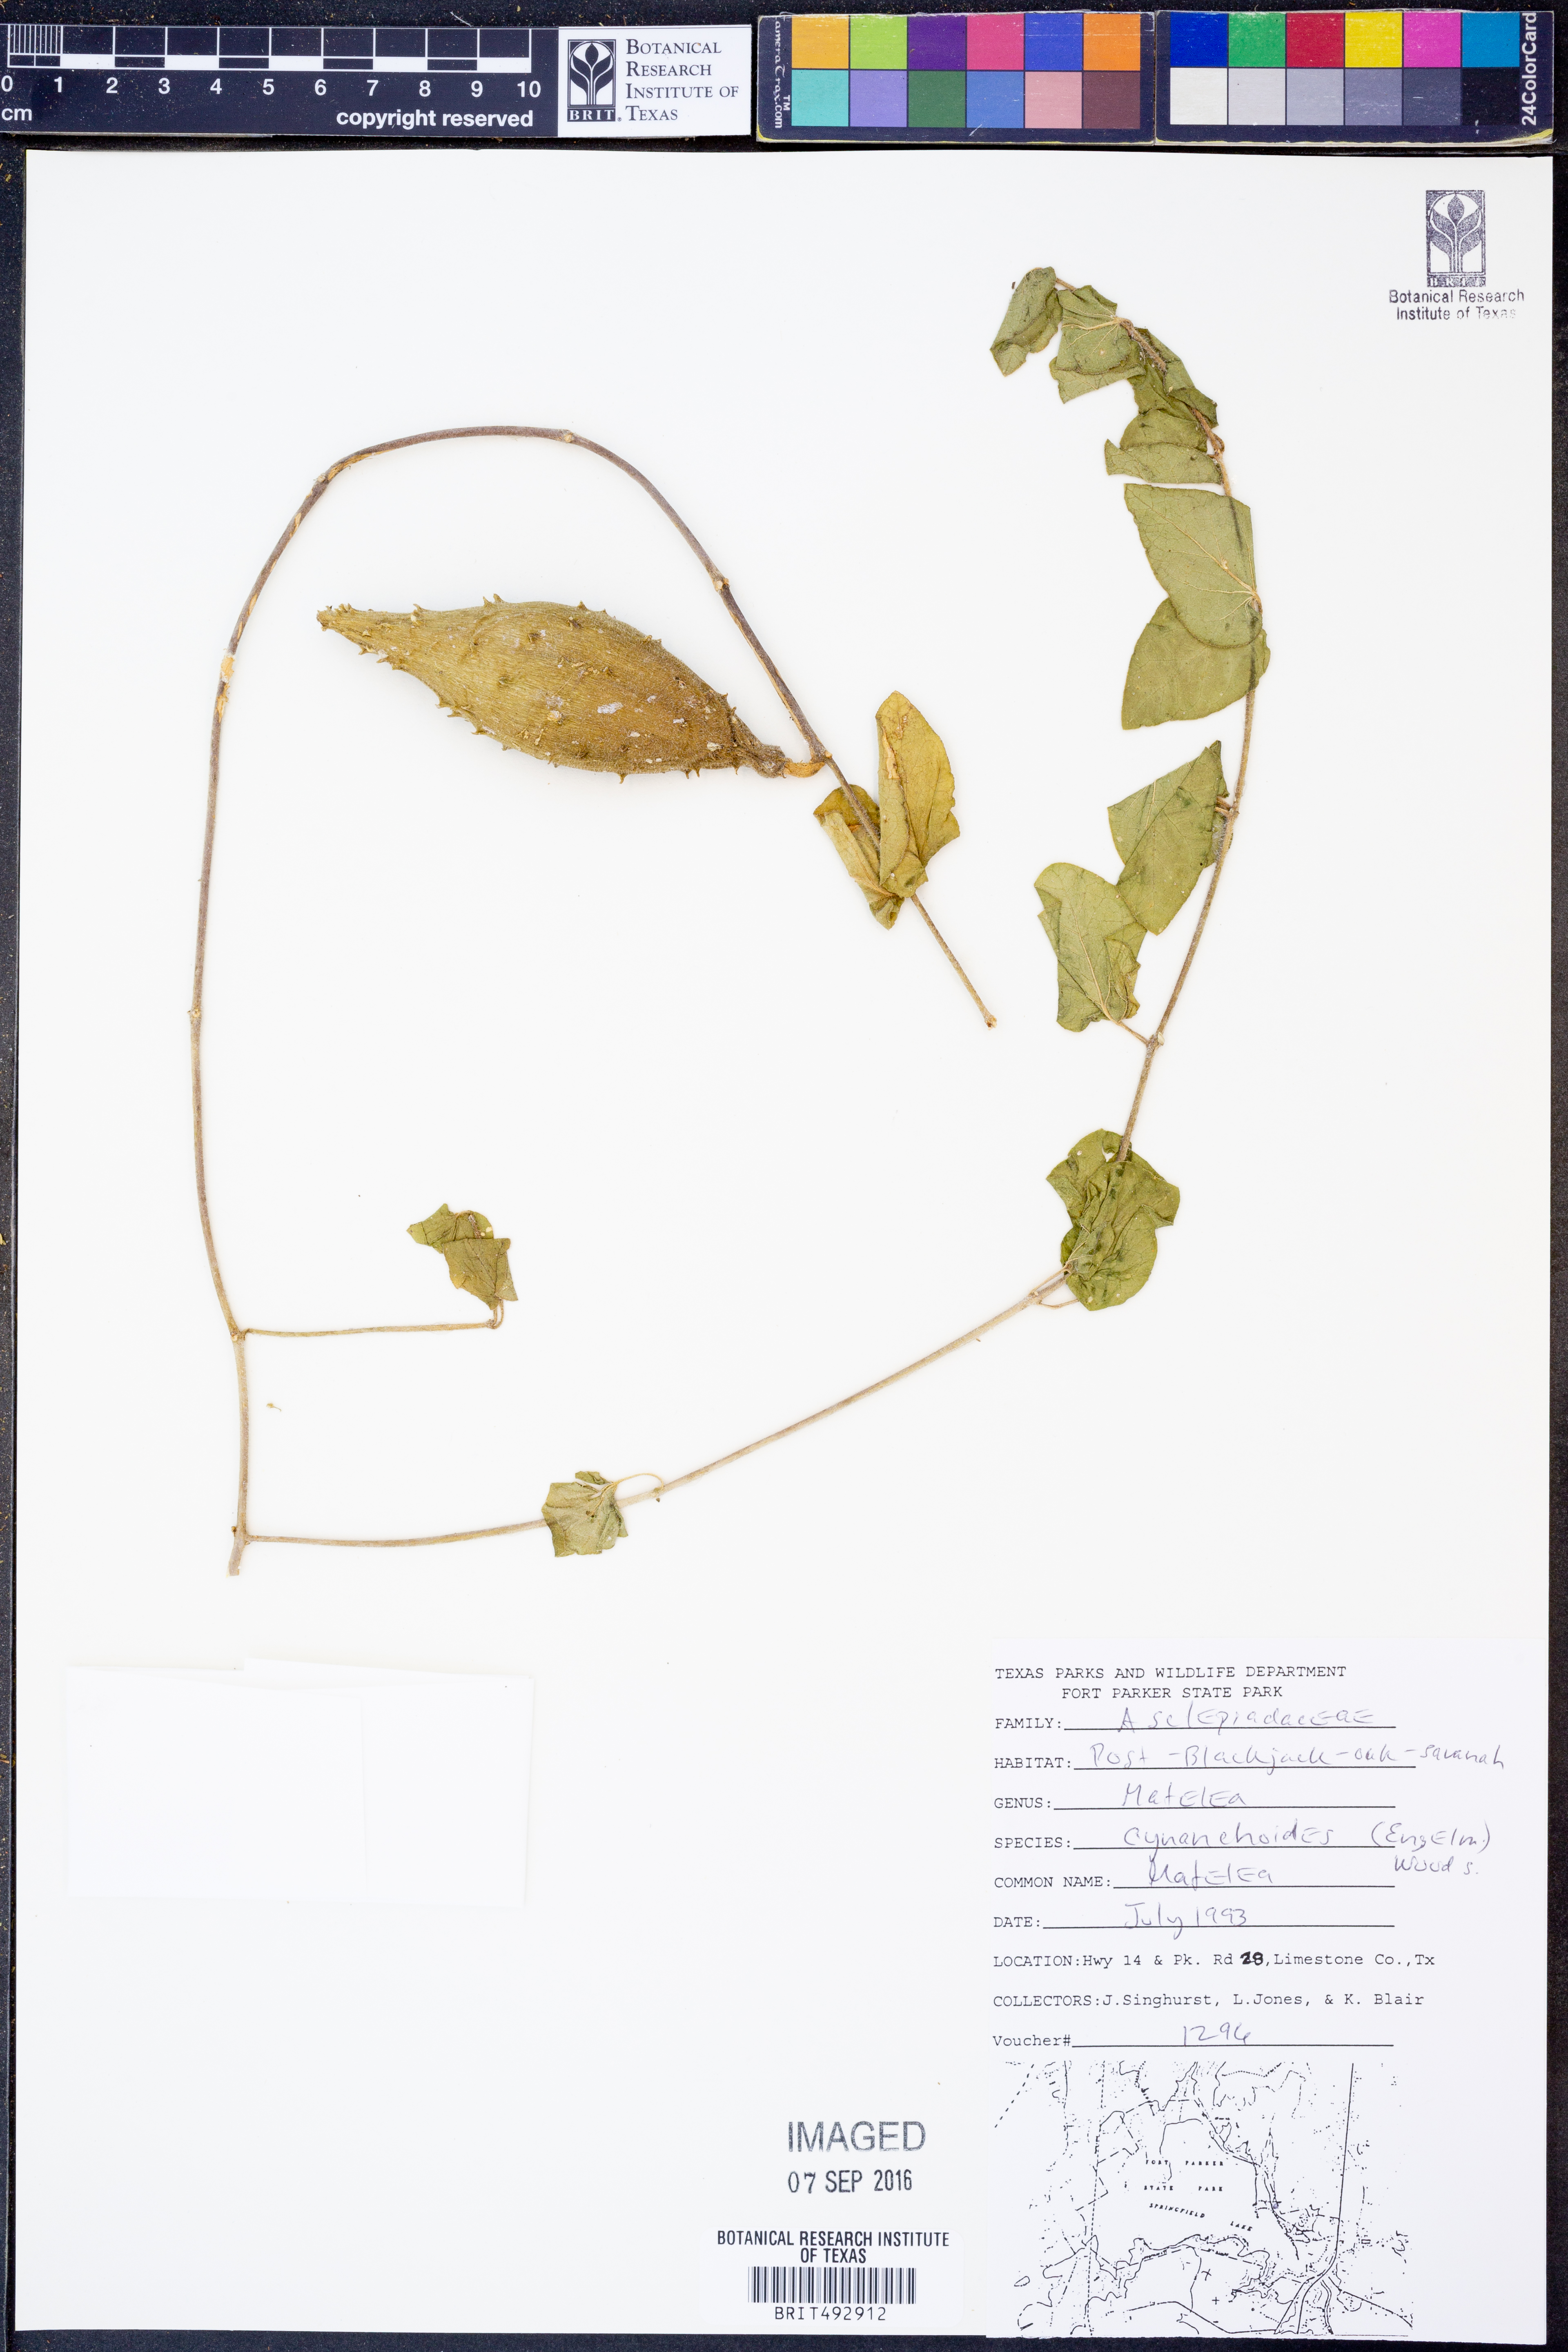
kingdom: Plantae
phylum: Tracheophyta
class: Magnoliopsida
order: Gentianales
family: Apocynaceae
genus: Matelea
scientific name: Matelea cynanchoides
